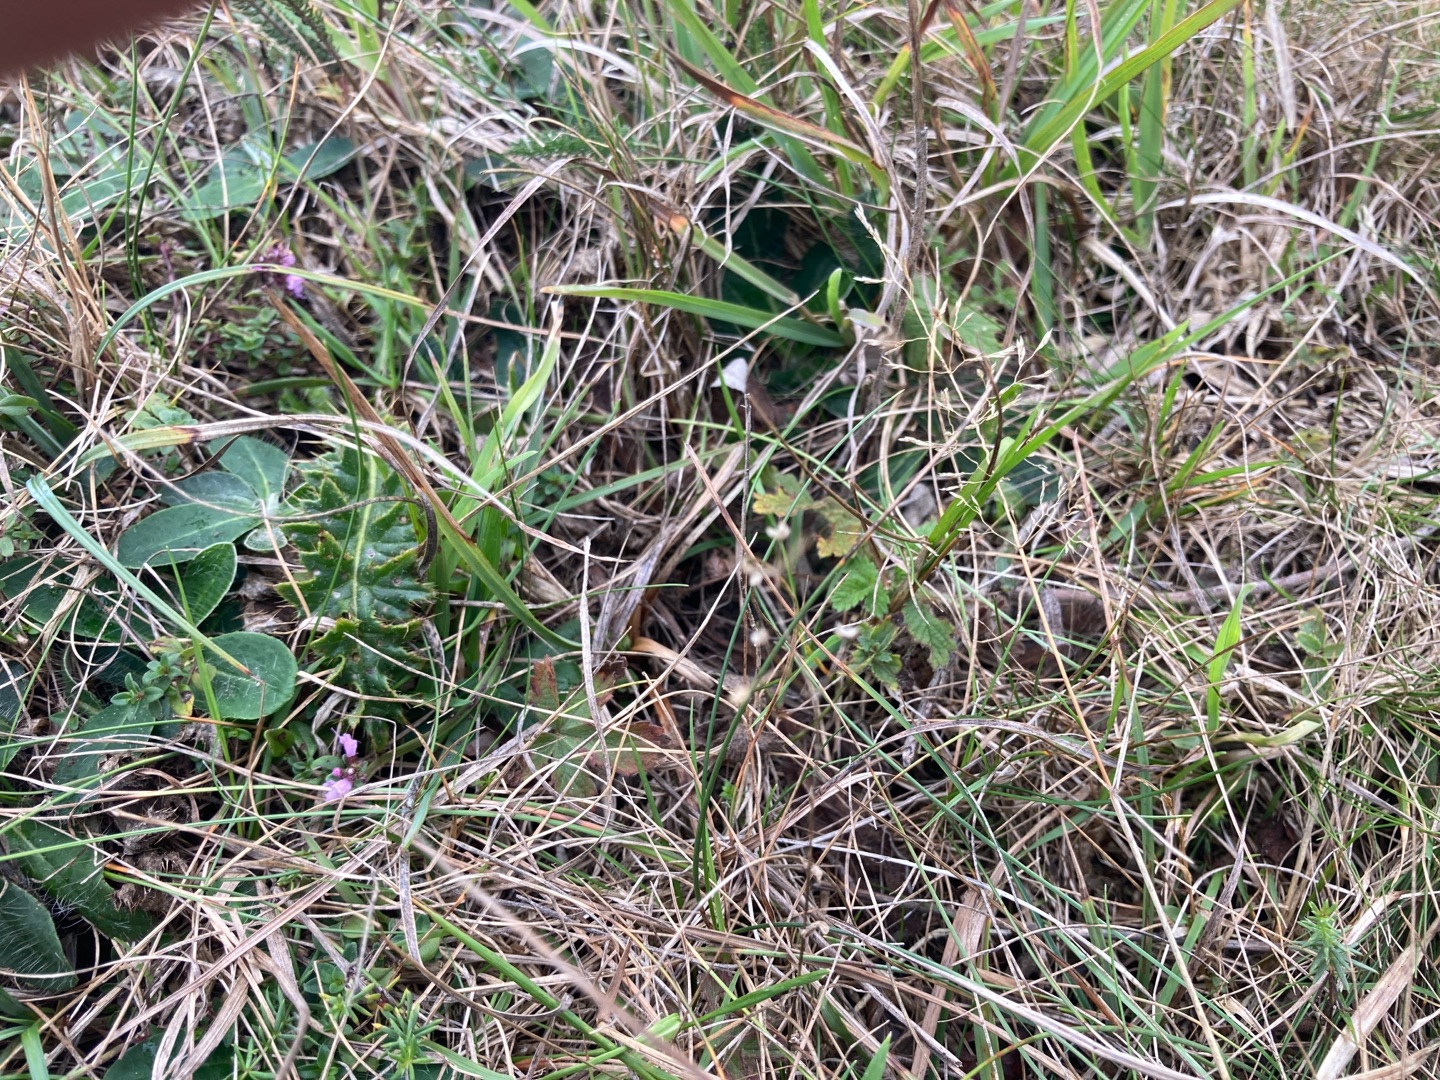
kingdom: Plantae
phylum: Tracheophyta
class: Magnoliopsida
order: Malpighiales
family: Linaceae
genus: Linum
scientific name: Linum catharticum
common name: Vild hør
